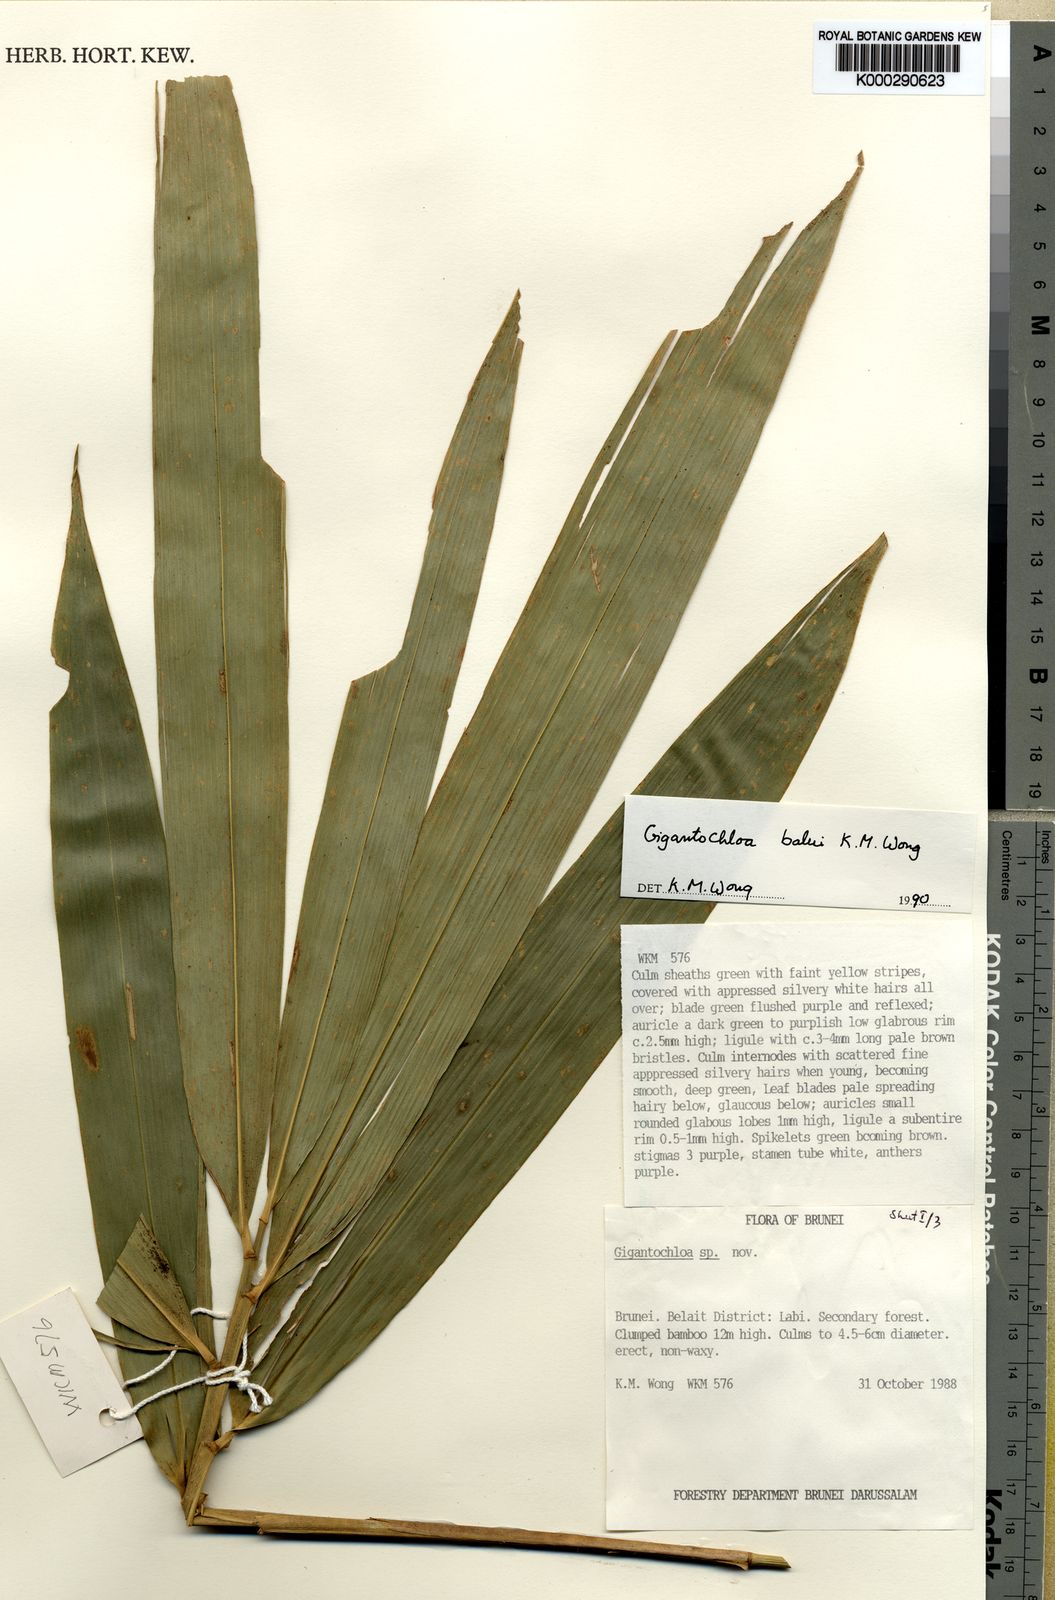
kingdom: Plantae
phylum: Tracheophyta
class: Liliopsida
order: Poales
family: Poaceae
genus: Gigantochloa
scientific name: Gigantochloa balui
